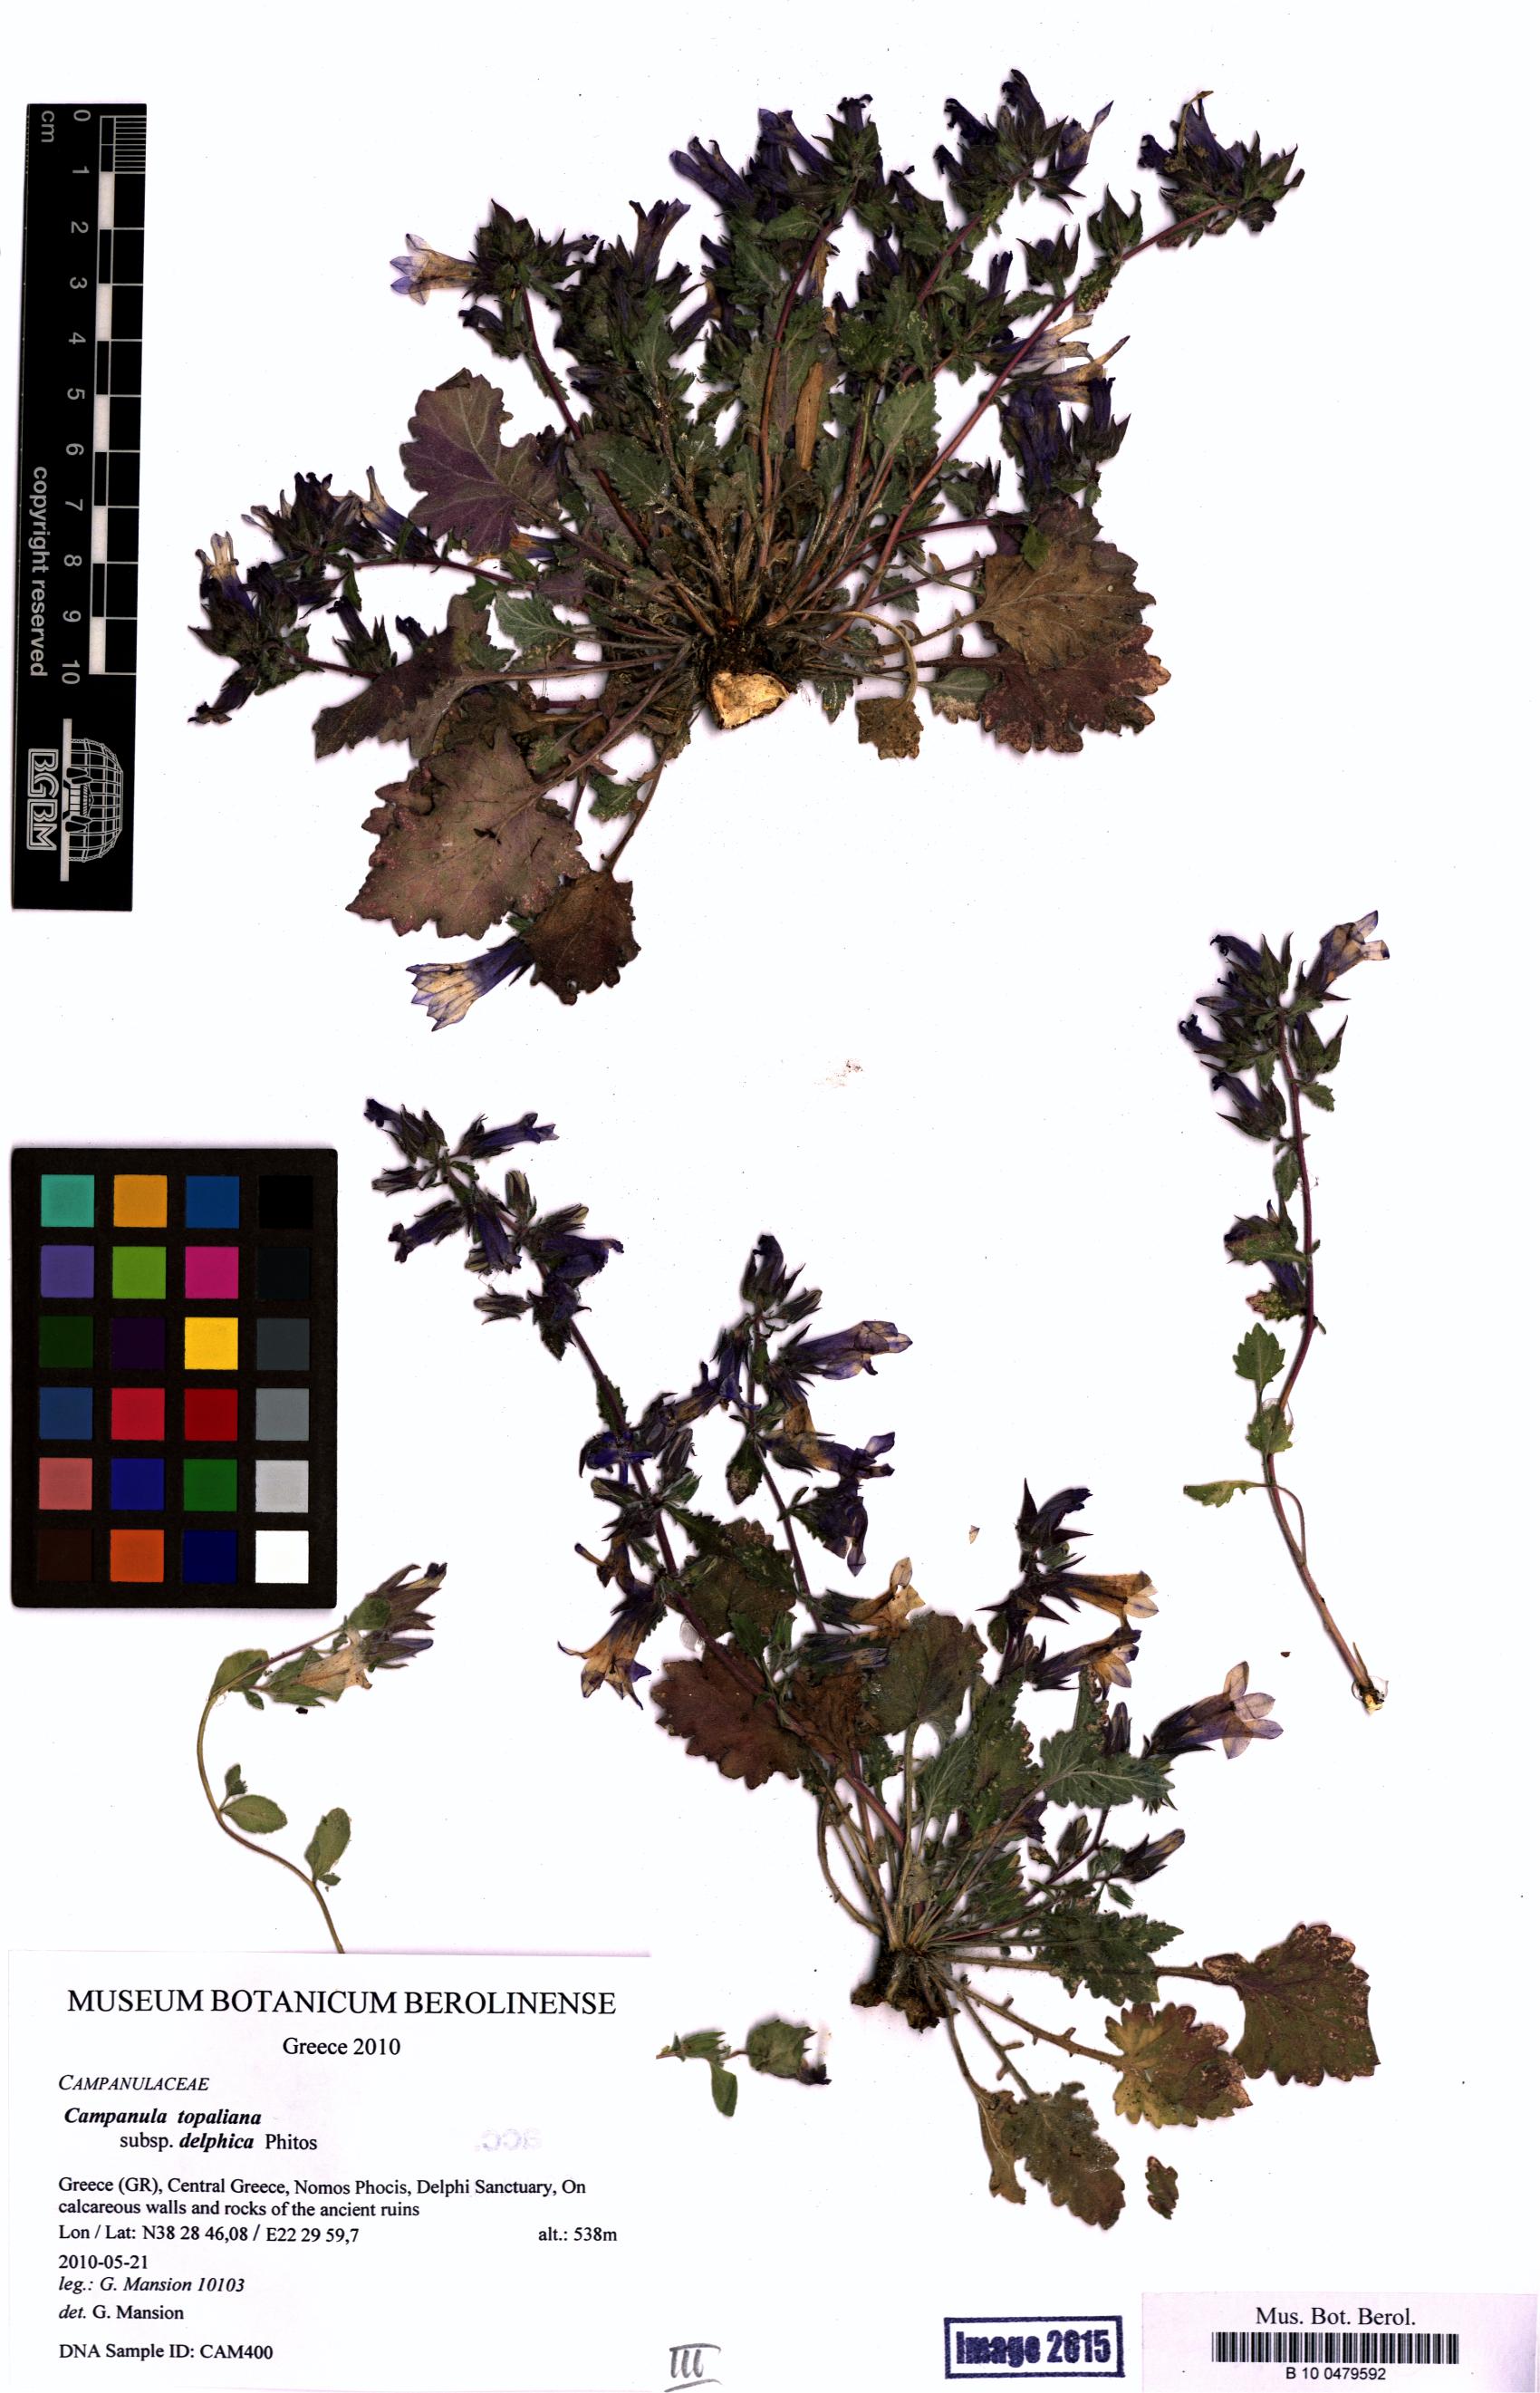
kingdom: Plantae
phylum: Tracheophyta
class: Magnoliopsida
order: Asterales
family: Campanulaceae
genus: Campanula
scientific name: Campanula topaliana
